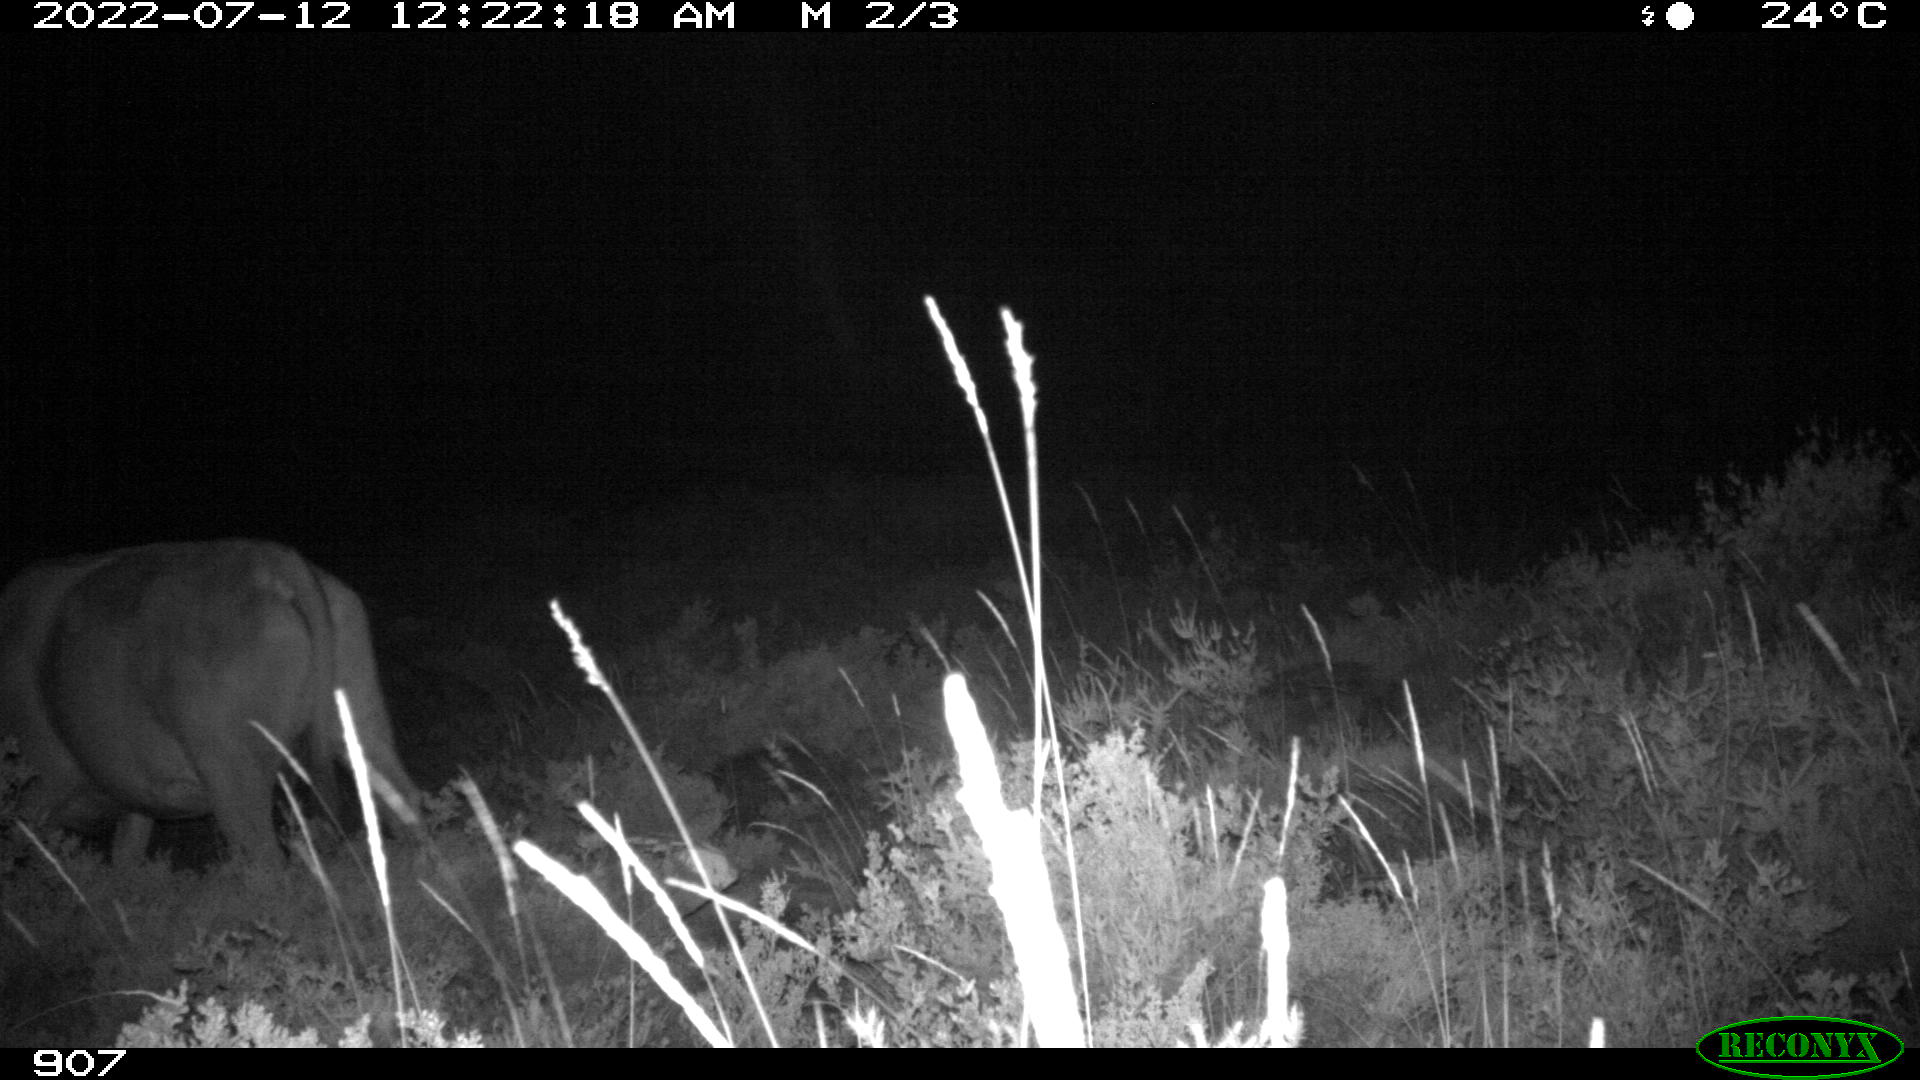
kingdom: Animalia
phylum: Chordata
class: Mammalia
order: Artiodactyla
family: Bovidae
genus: Bos
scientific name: Bos taurus
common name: Domesticated cattle
